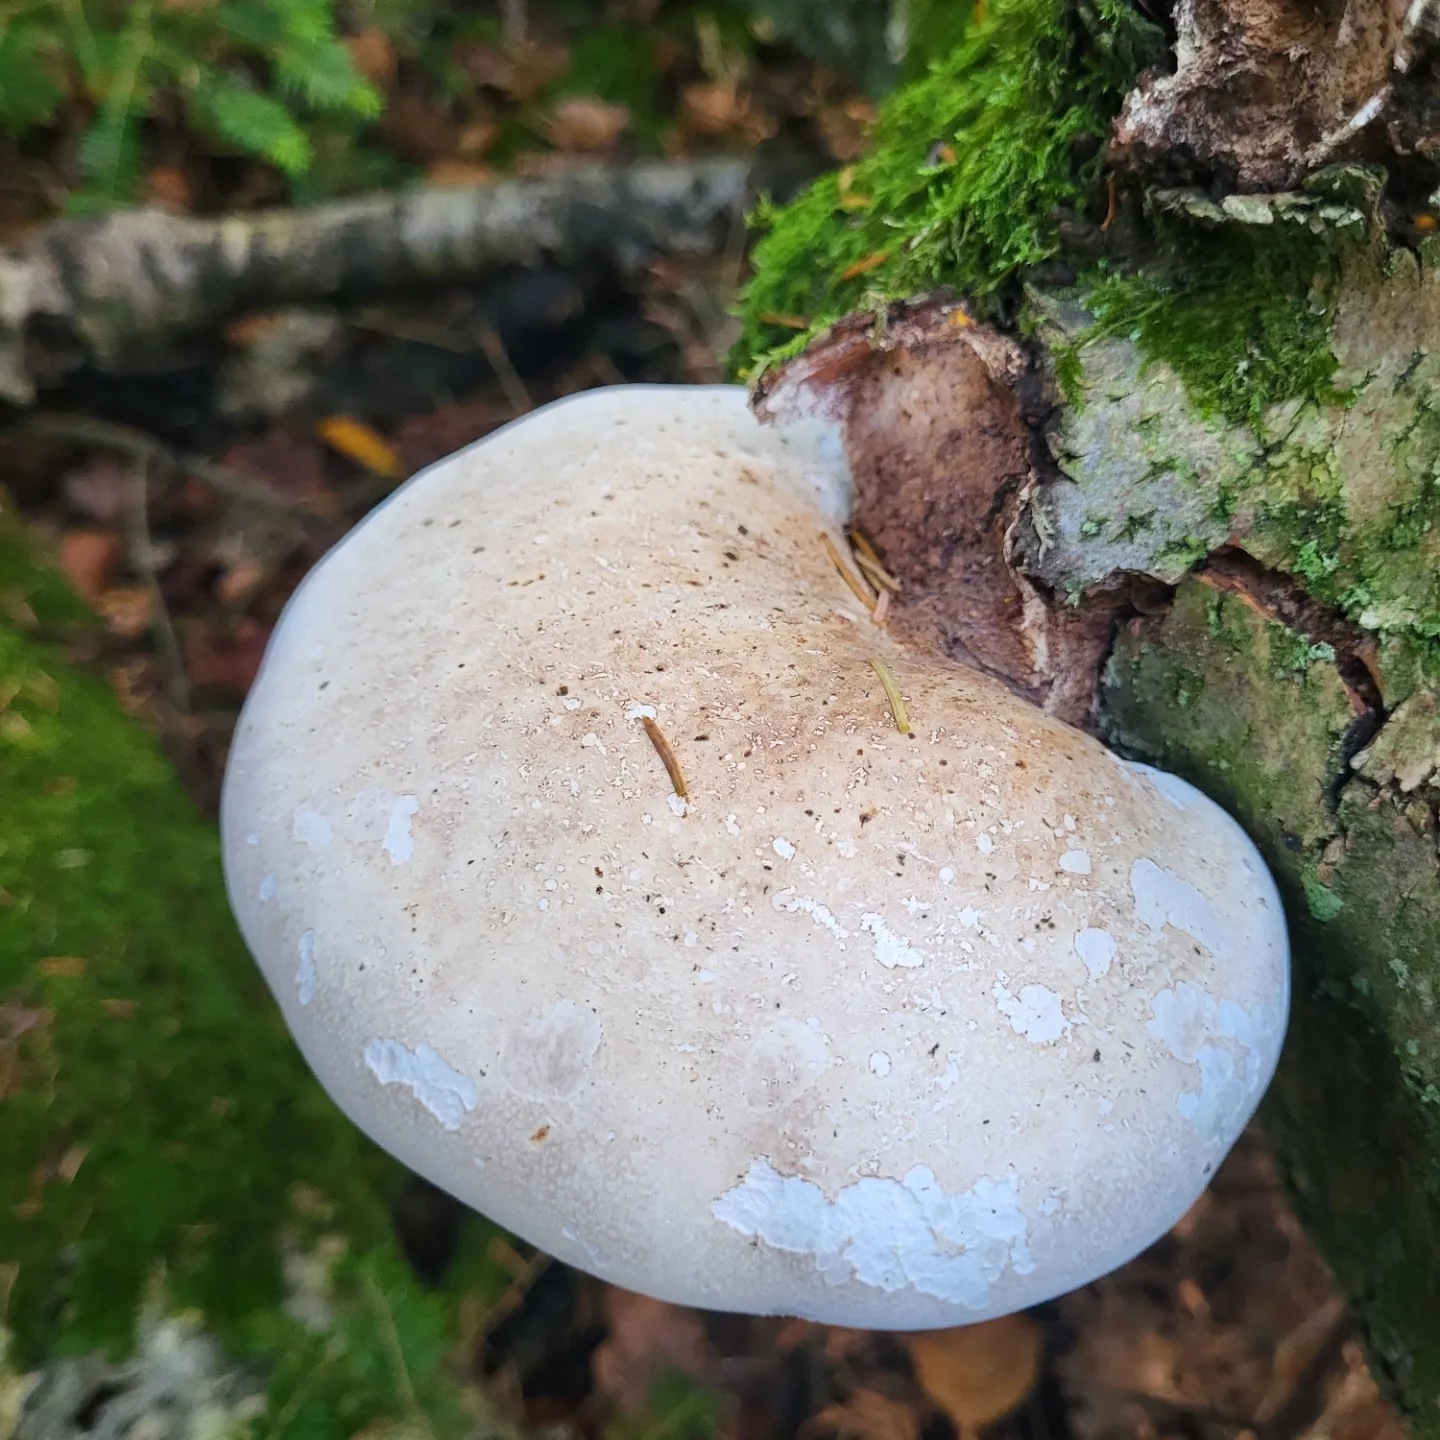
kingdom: Fungi
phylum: Basidiomycota
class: Agaricomycetes
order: Polyporales
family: Fomitopsidaceae
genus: Fomitopsis
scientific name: Fomitopsis betulina
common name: birkeporesvamp
